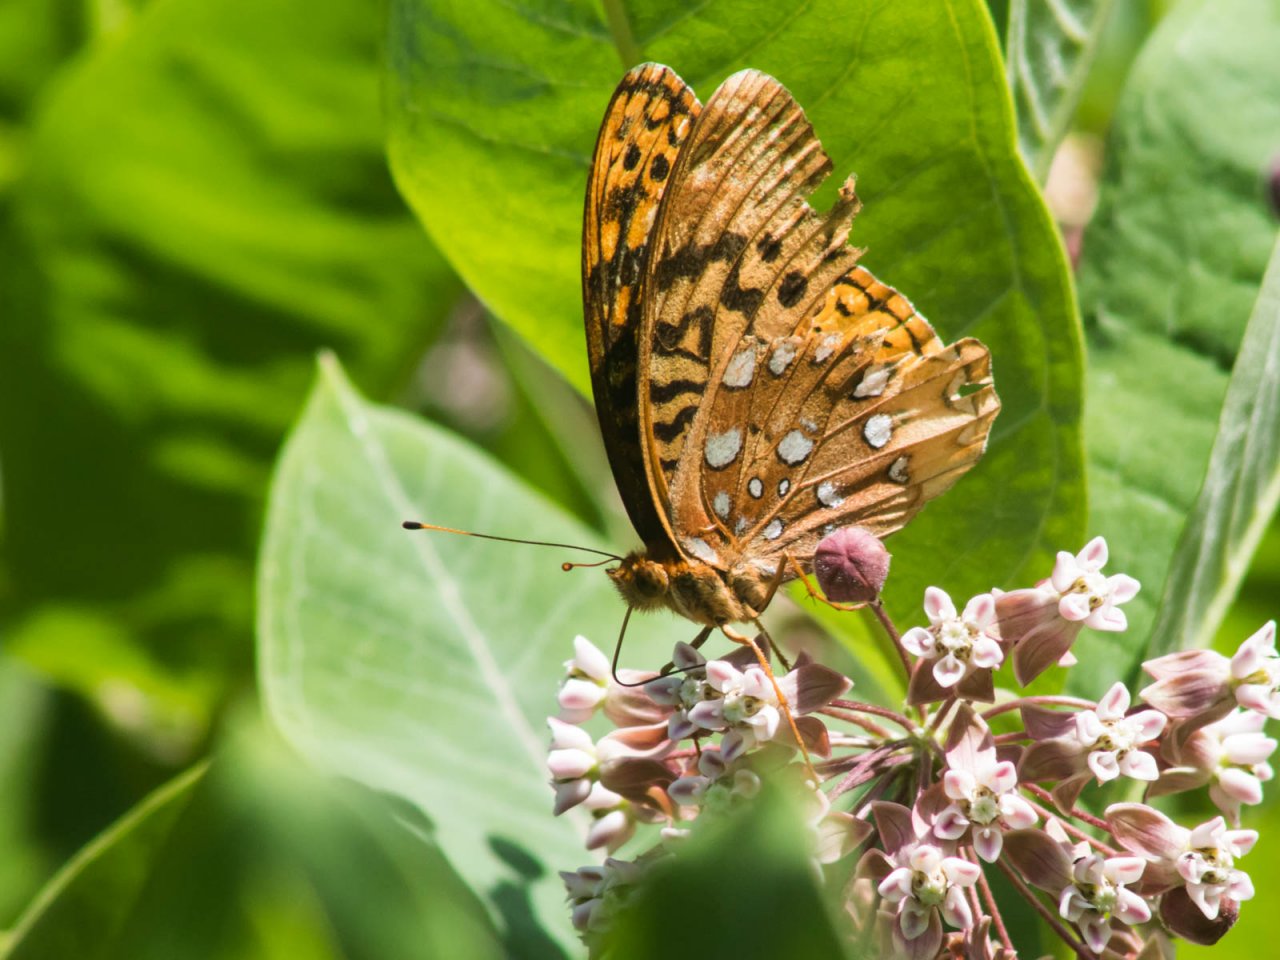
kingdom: Animalia
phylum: Arthropoda
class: Insecta
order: Lepidoptera
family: Nymphalidae
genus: Speyeria
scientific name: Speyeria cybele
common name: Great Spangled Fritillary
